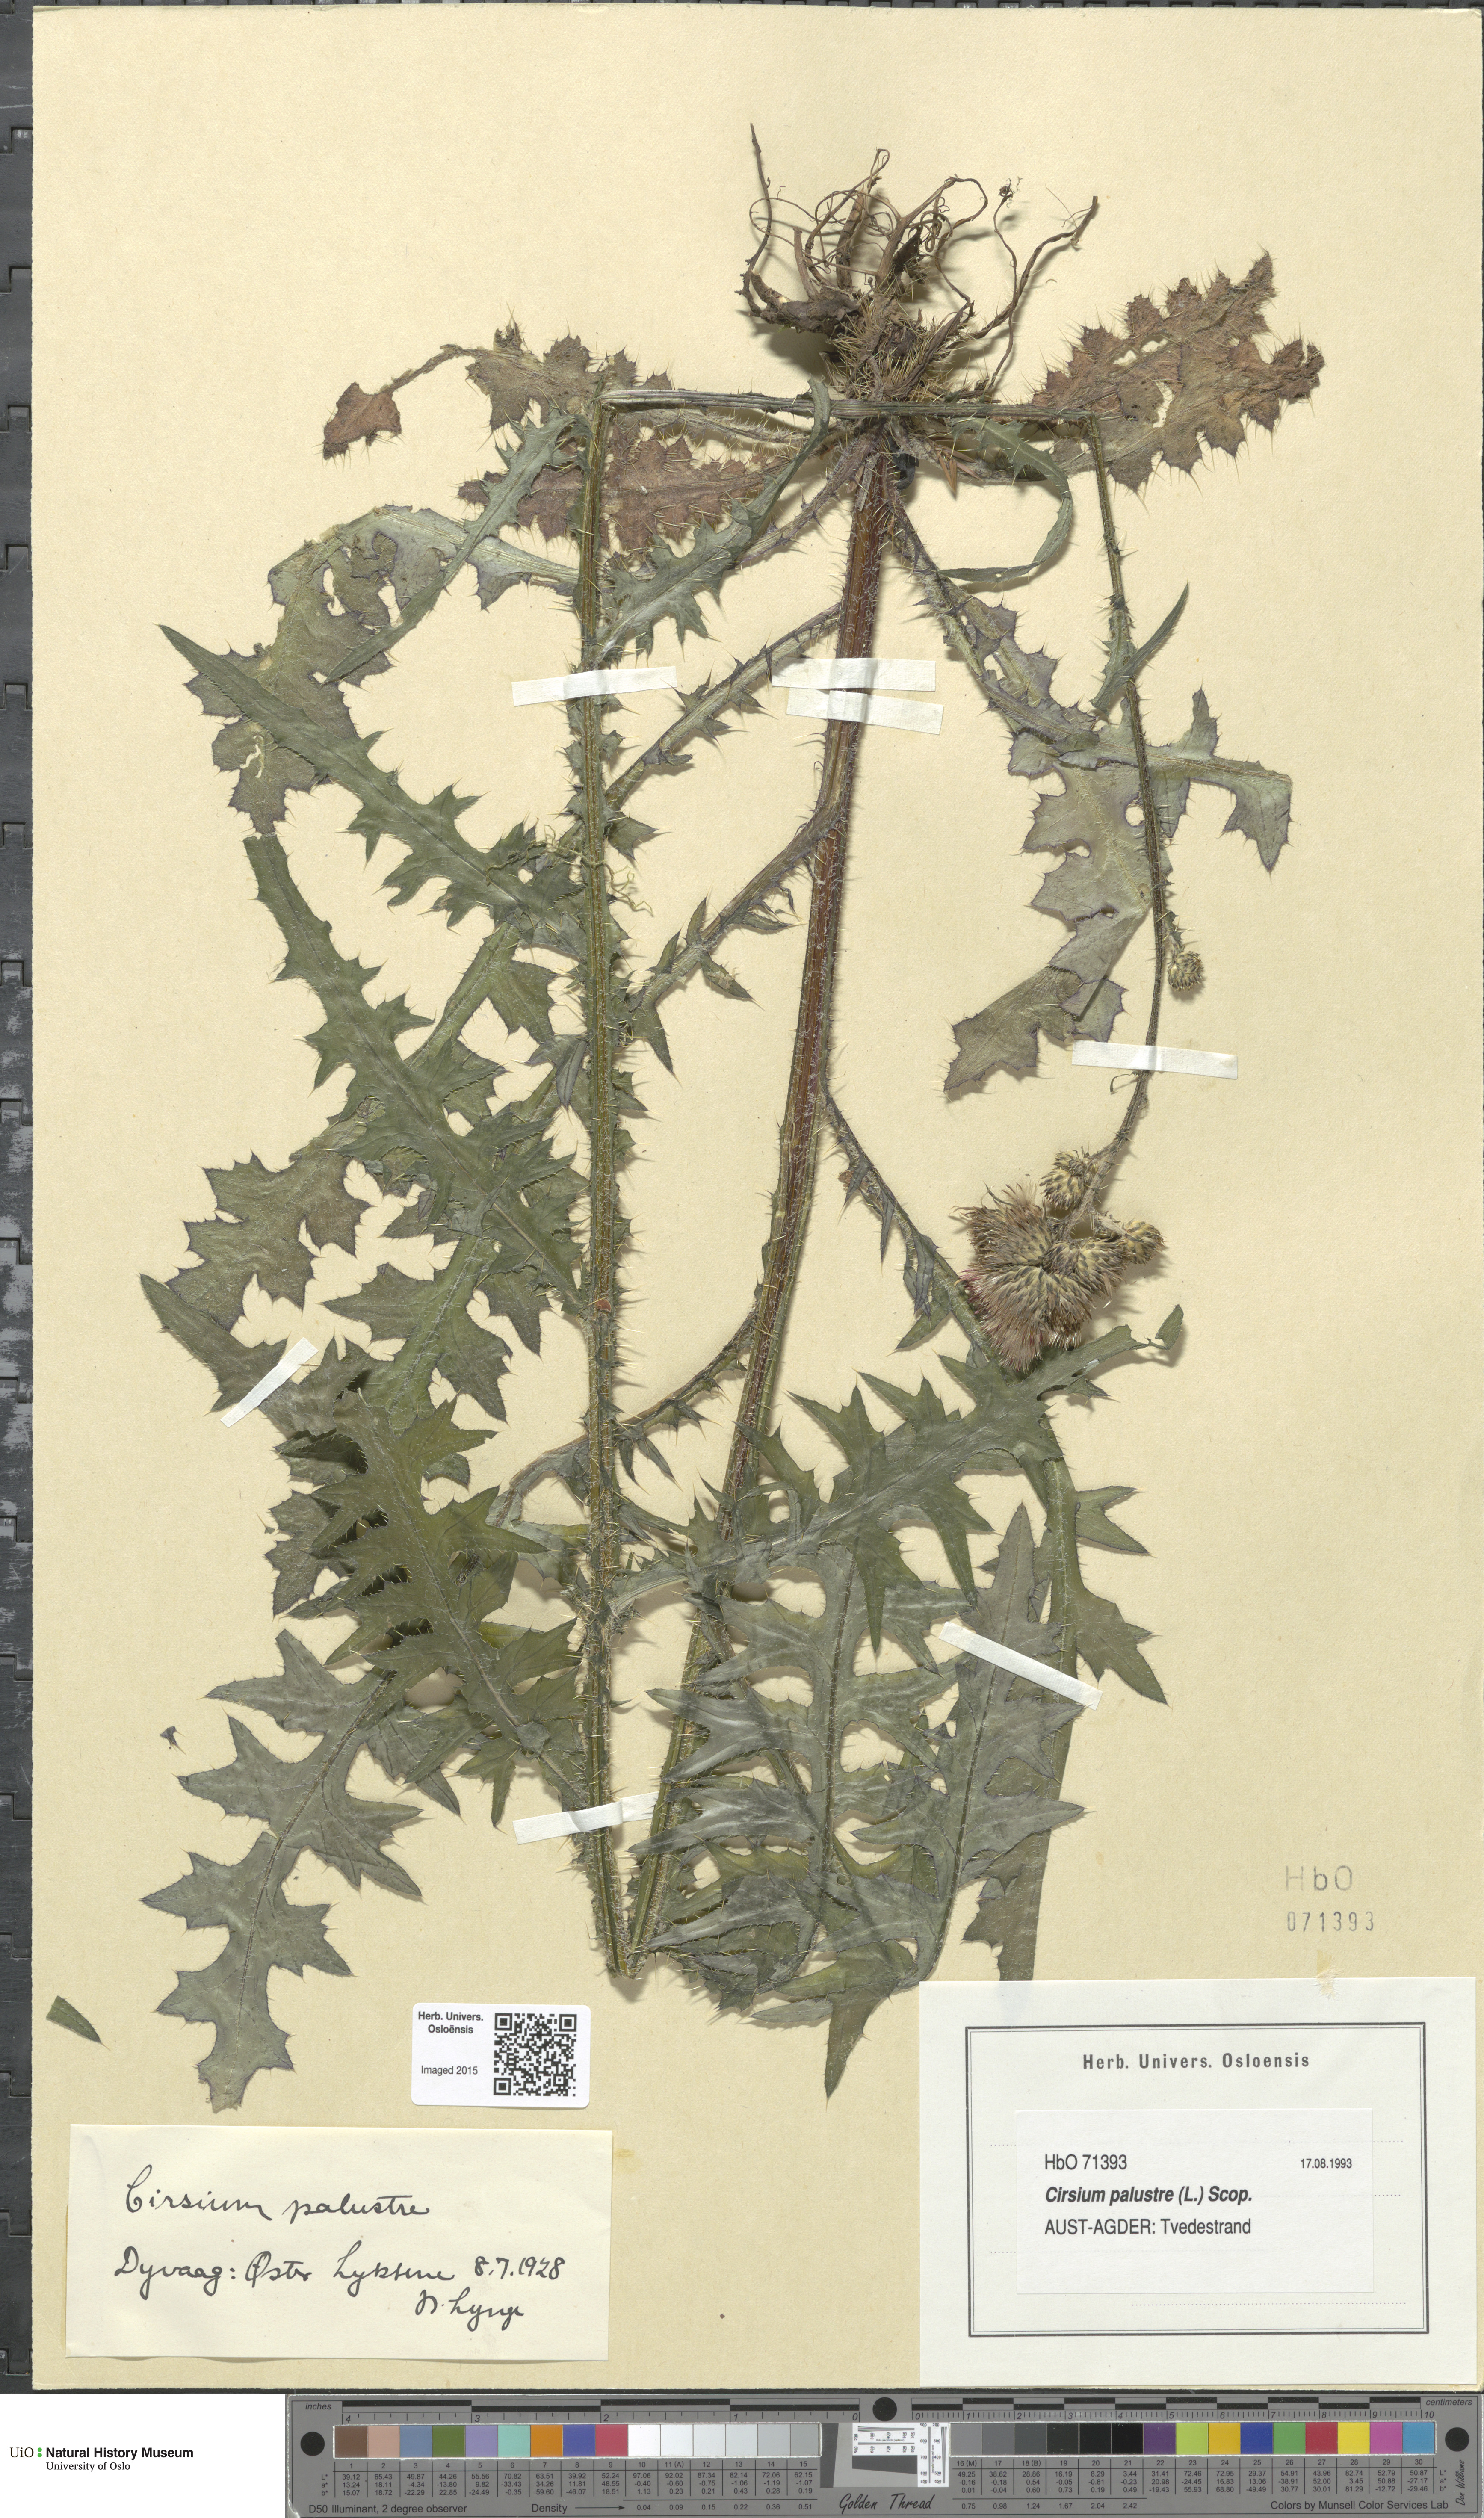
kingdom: Plantae
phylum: Tracheophyta
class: Magnoliopsida
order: Asterales
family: Asteraceae
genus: Cirsium
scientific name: Cirsium palustre
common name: Marsh thistle
